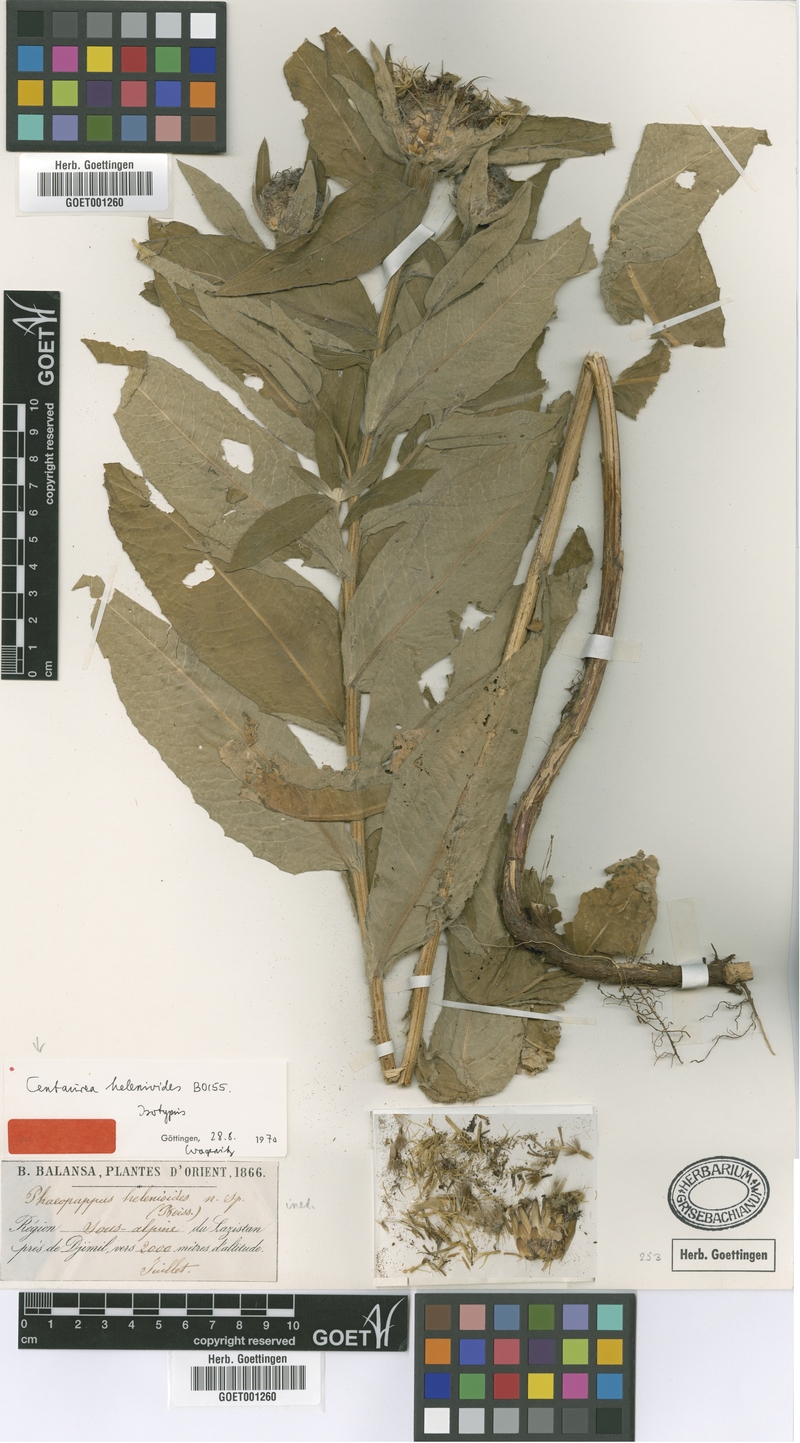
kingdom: Plantae
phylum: Tracheophyta
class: Magnoliopsida
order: Asterales
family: Asteraceae
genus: Centaurea
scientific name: Centaurea helenioides
